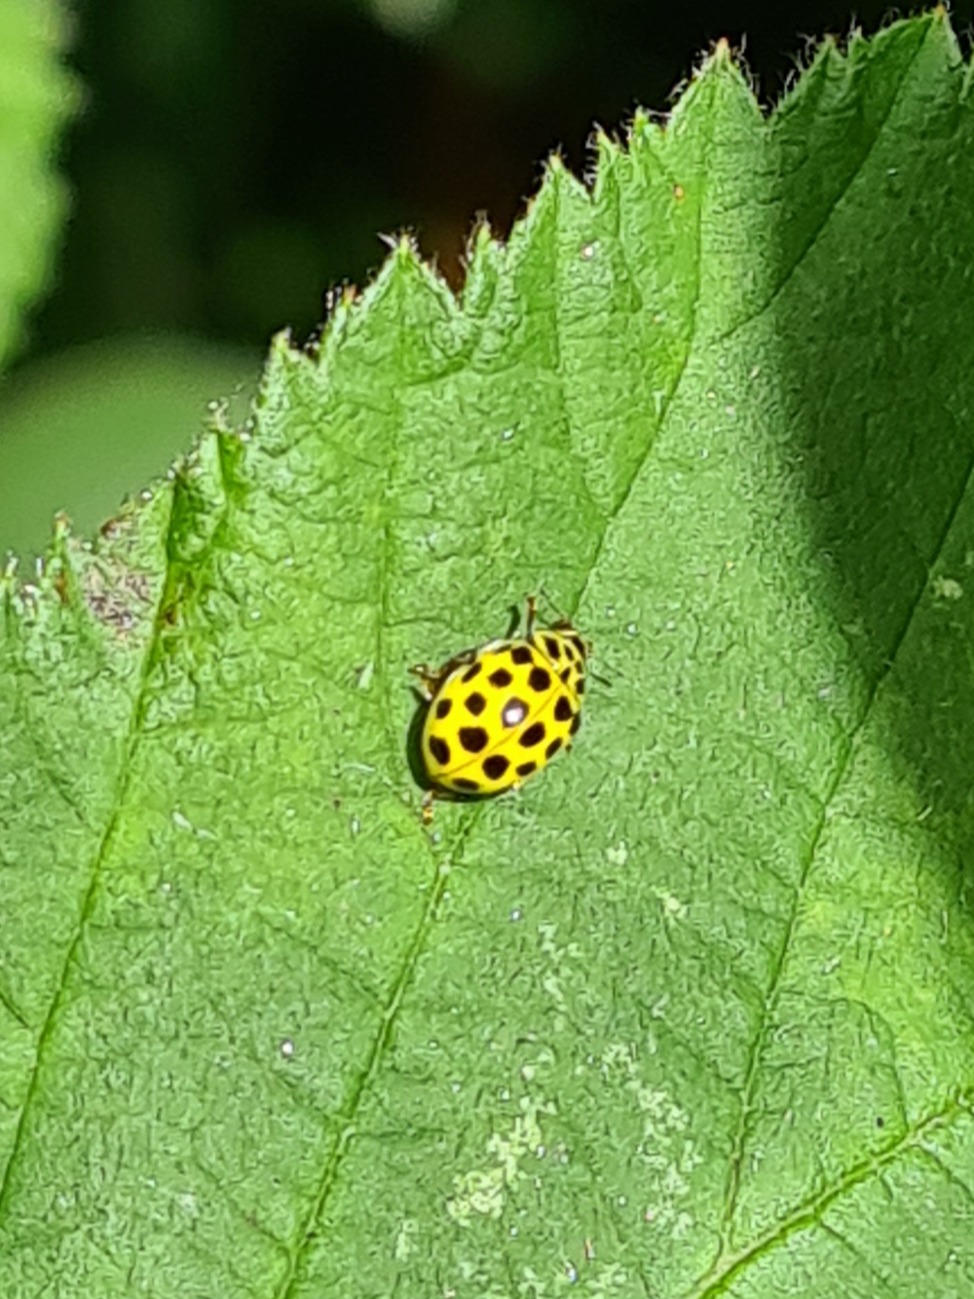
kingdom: Animalia
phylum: Arthropoda
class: Insecta
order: Coleoptera
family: Coccinellidae
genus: Psyllobora
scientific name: Psyllobora vigintiduopunctata
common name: Toogtyveplettet mariehøne
